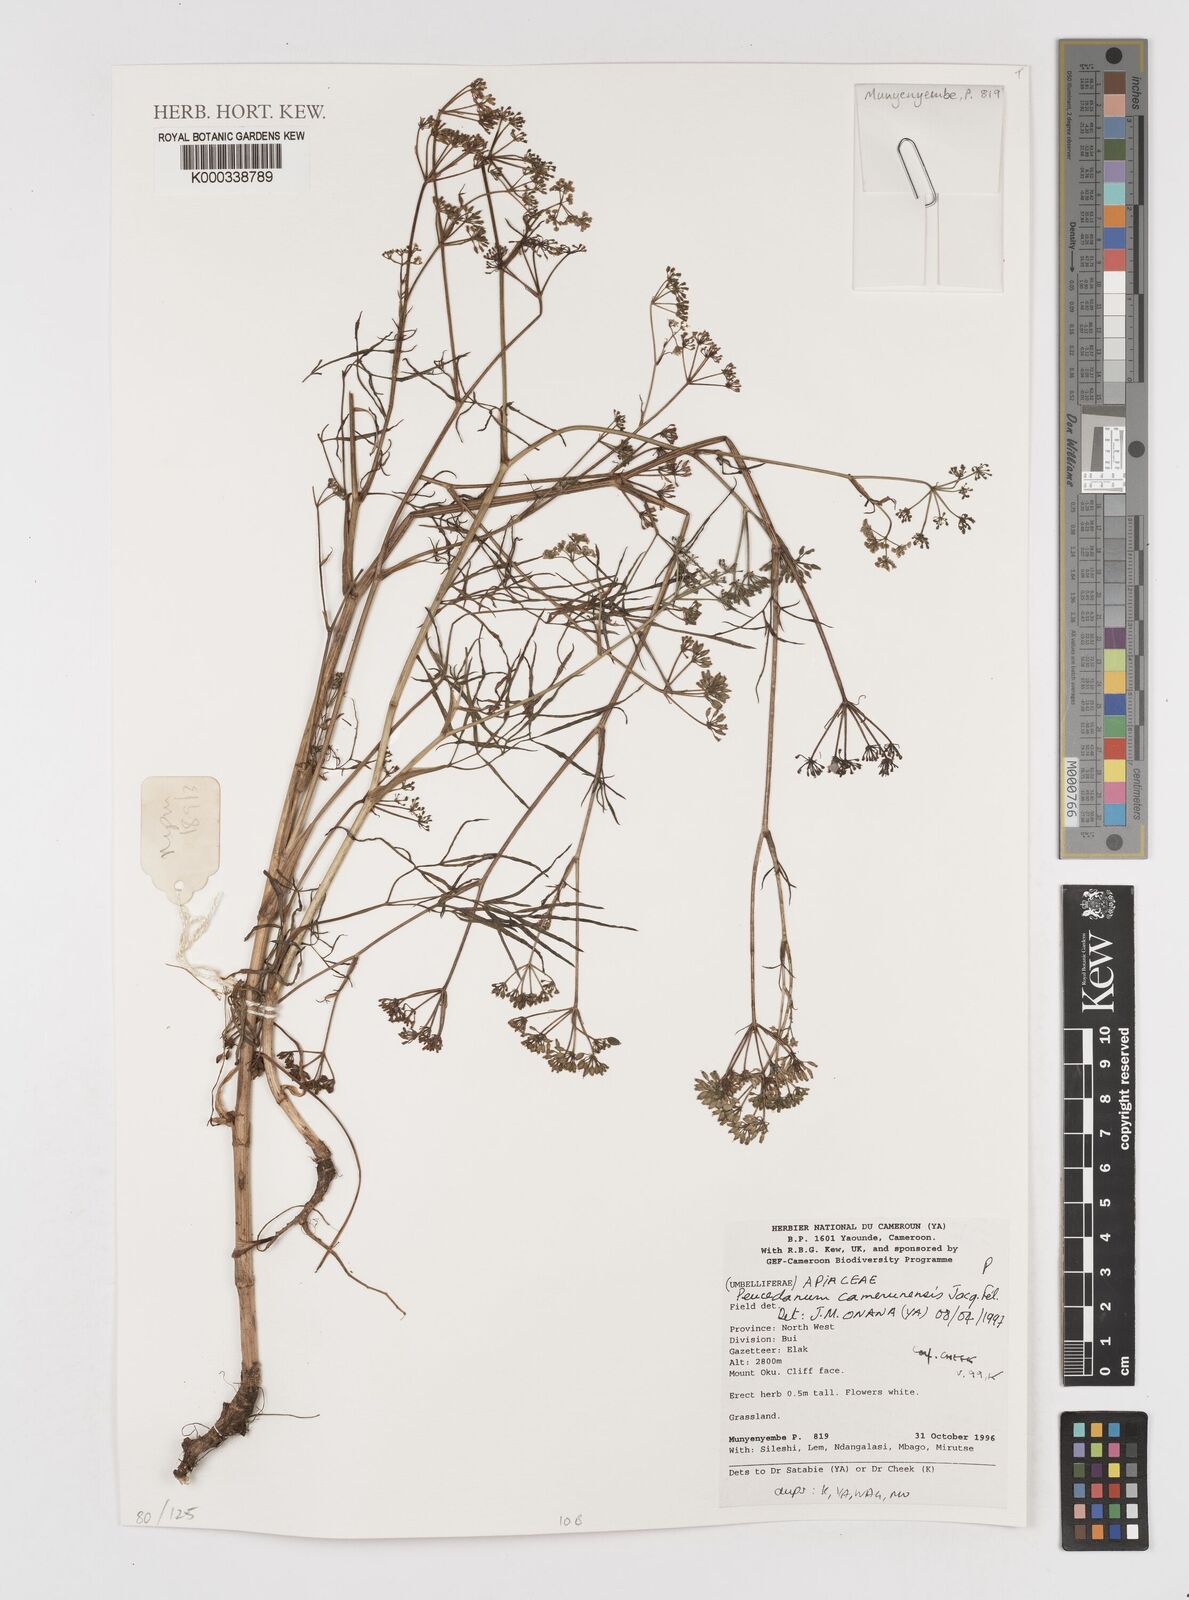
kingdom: Plantae
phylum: Tracheophyta
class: Magnoliopsida
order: Apiales
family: Apiaceae
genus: Lefebvrea
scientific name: Lefebvrea
